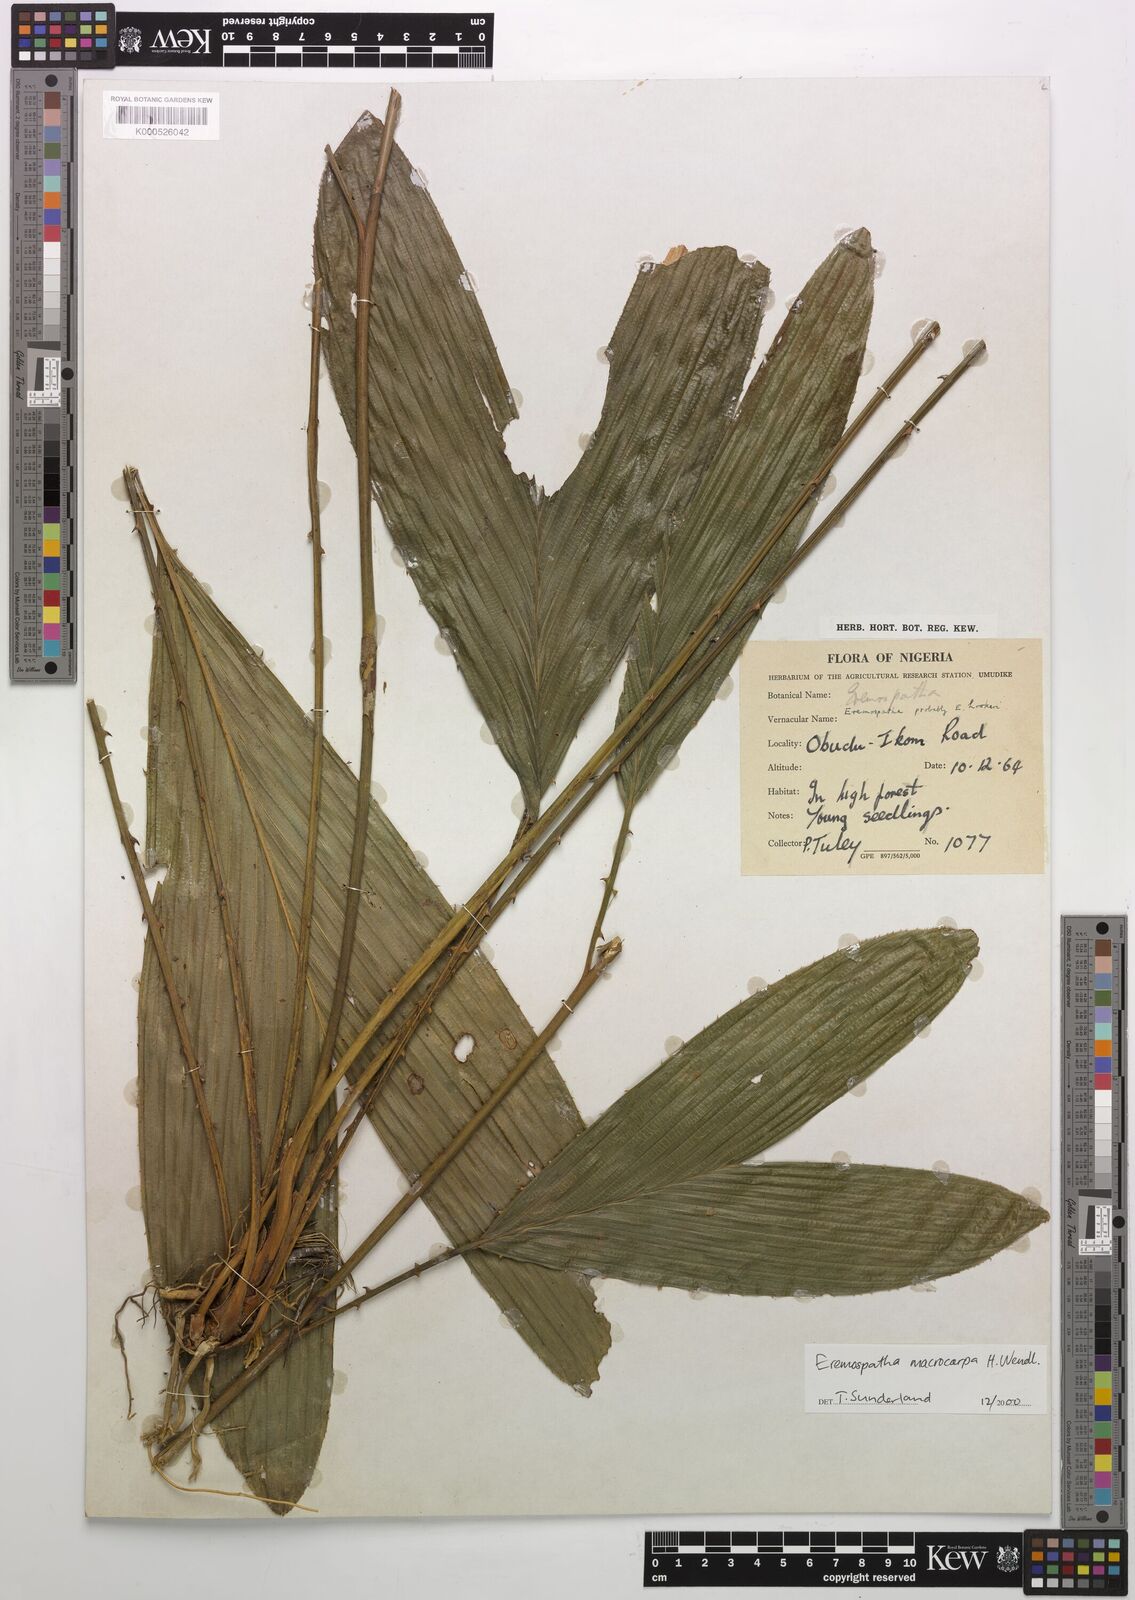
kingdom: Plantae
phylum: Tracheophyta
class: Liliopsida
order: Arecales
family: Arecaceae
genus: Eremospatha
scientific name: Eremospatha
